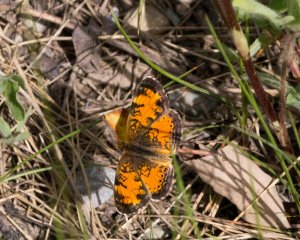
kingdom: Animalia
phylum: Arthropoda
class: Insecta
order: Lepidoptera
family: Nymphalidae
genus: Phyciodes
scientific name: Phyciodes tharos
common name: Northern Crescent
